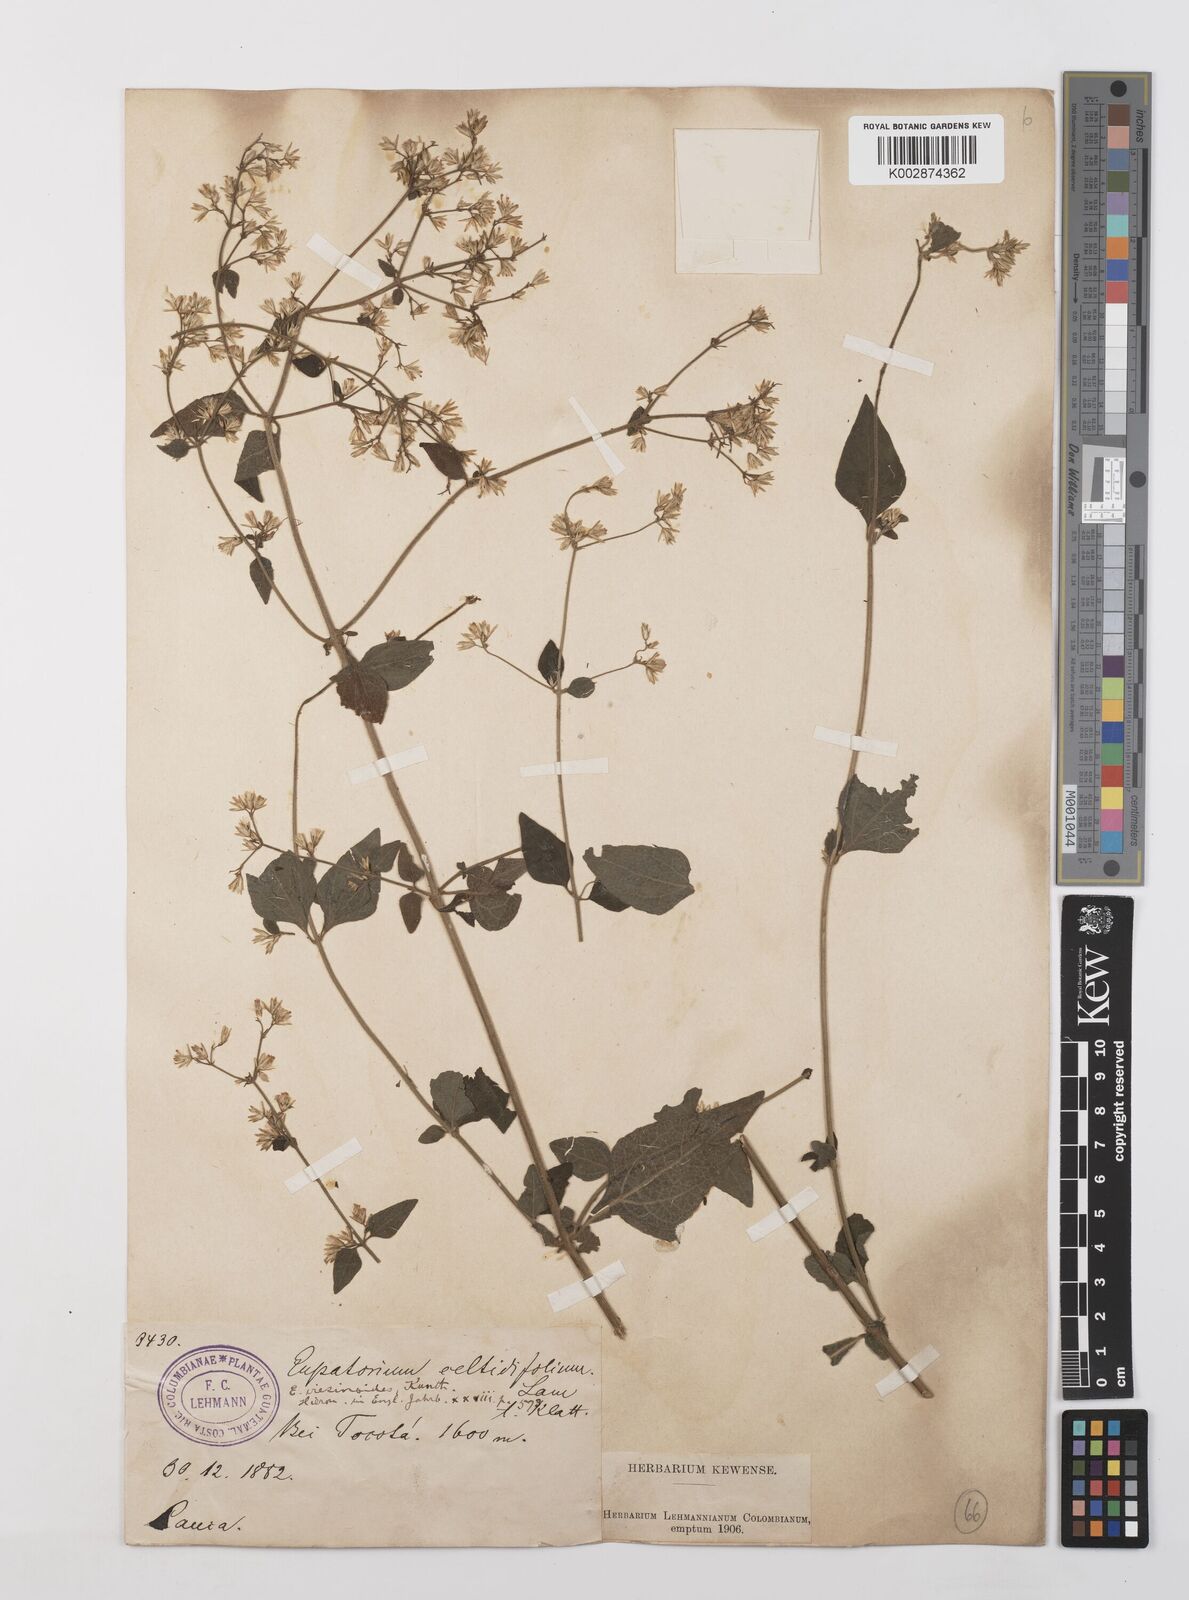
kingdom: Plantae
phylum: Tracheophyta
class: Magnoliopsida
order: Asterales
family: Asteraceae
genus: Condylidium
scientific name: Condylidium iresinoides
